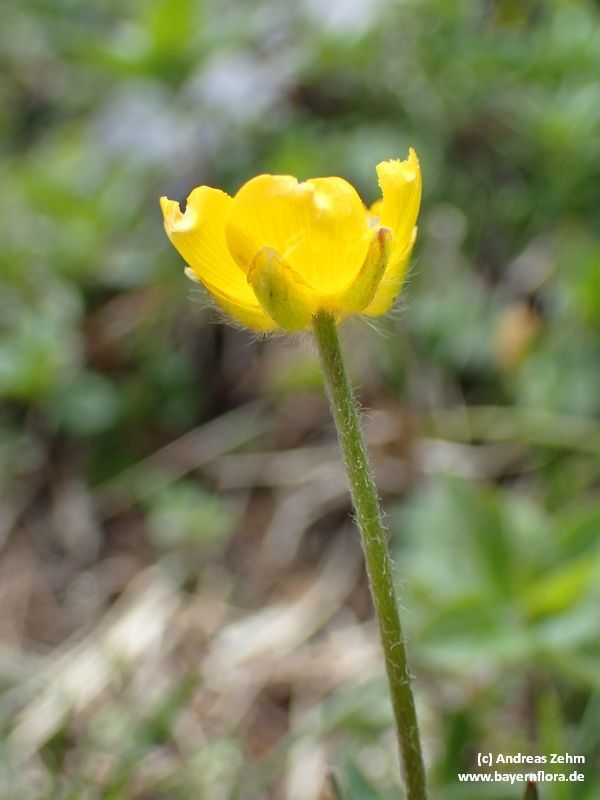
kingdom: Plantae
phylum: Tracheophyta
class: Magnoliopsida
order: Ranunculales
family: Ranunculaceae
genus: Ranunculus
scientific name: Ranunculus breyninus
